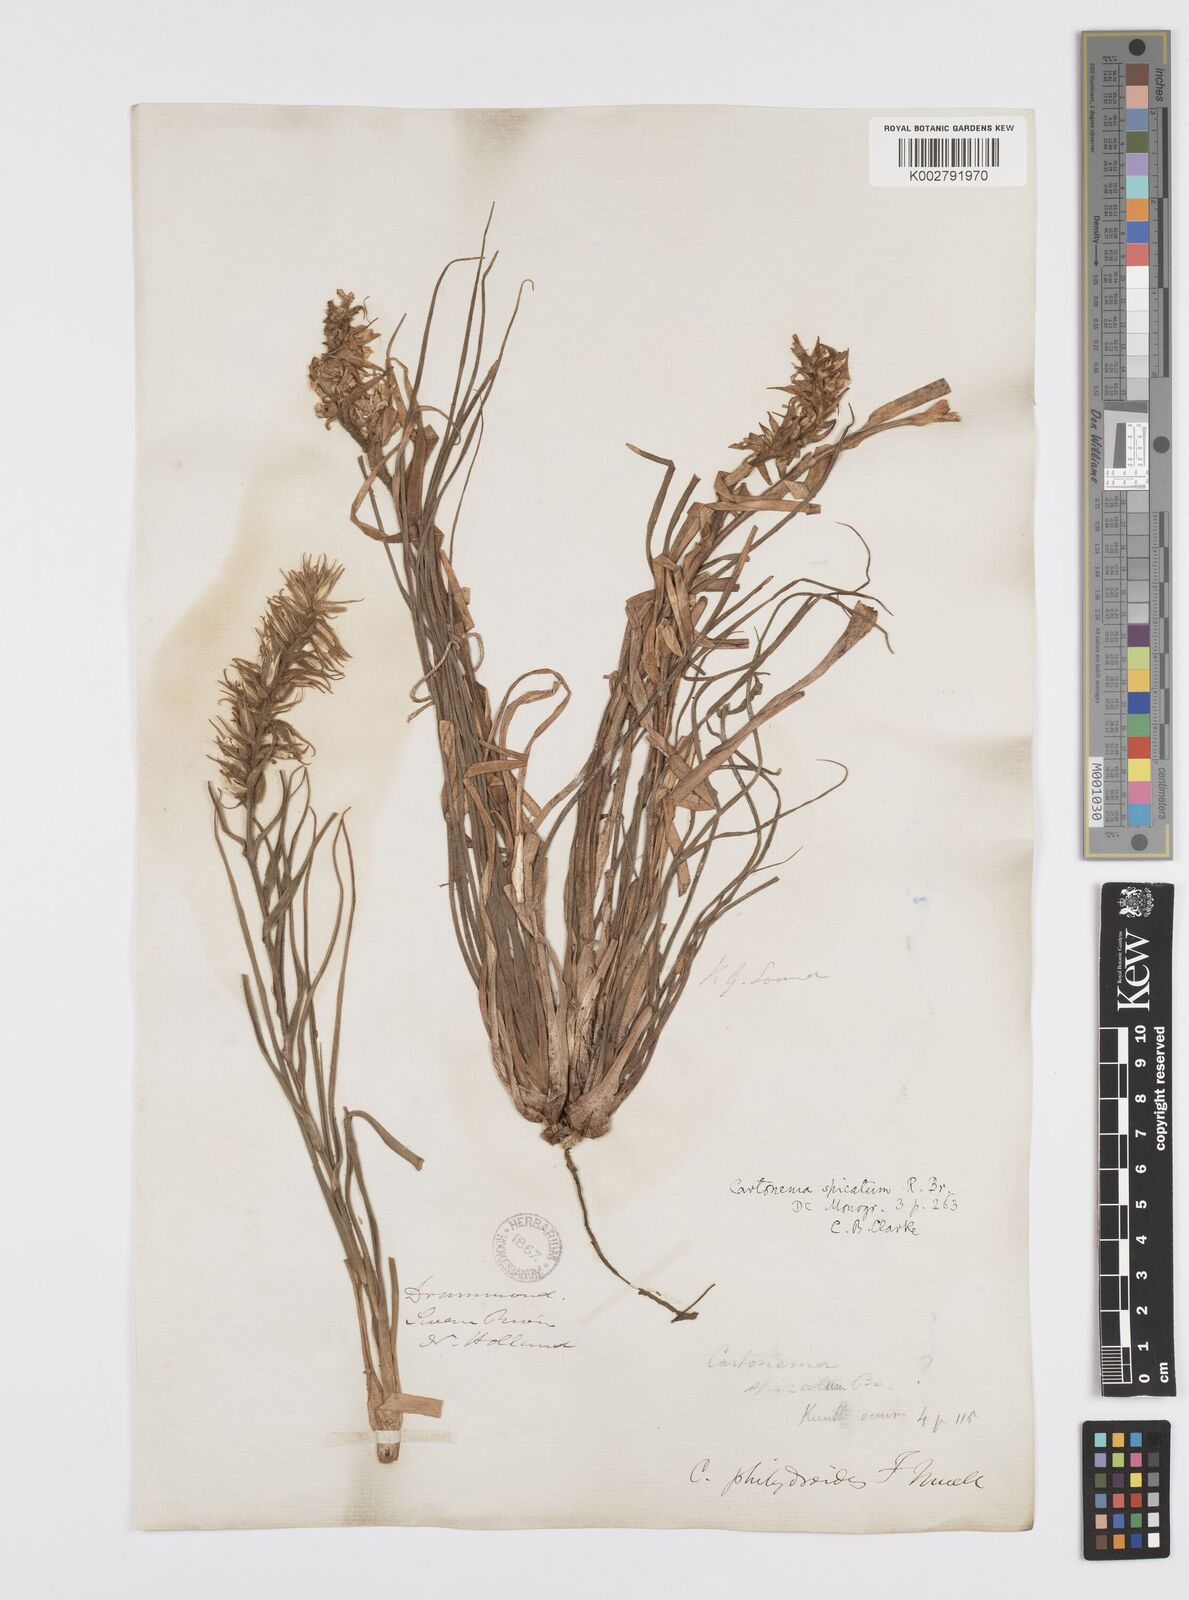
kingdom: Plantae
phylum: Tracheophyta
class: Liliopsida
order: Commelinales
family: Commelinaceae
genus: Cartonema
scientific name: Cartonema philydroides
